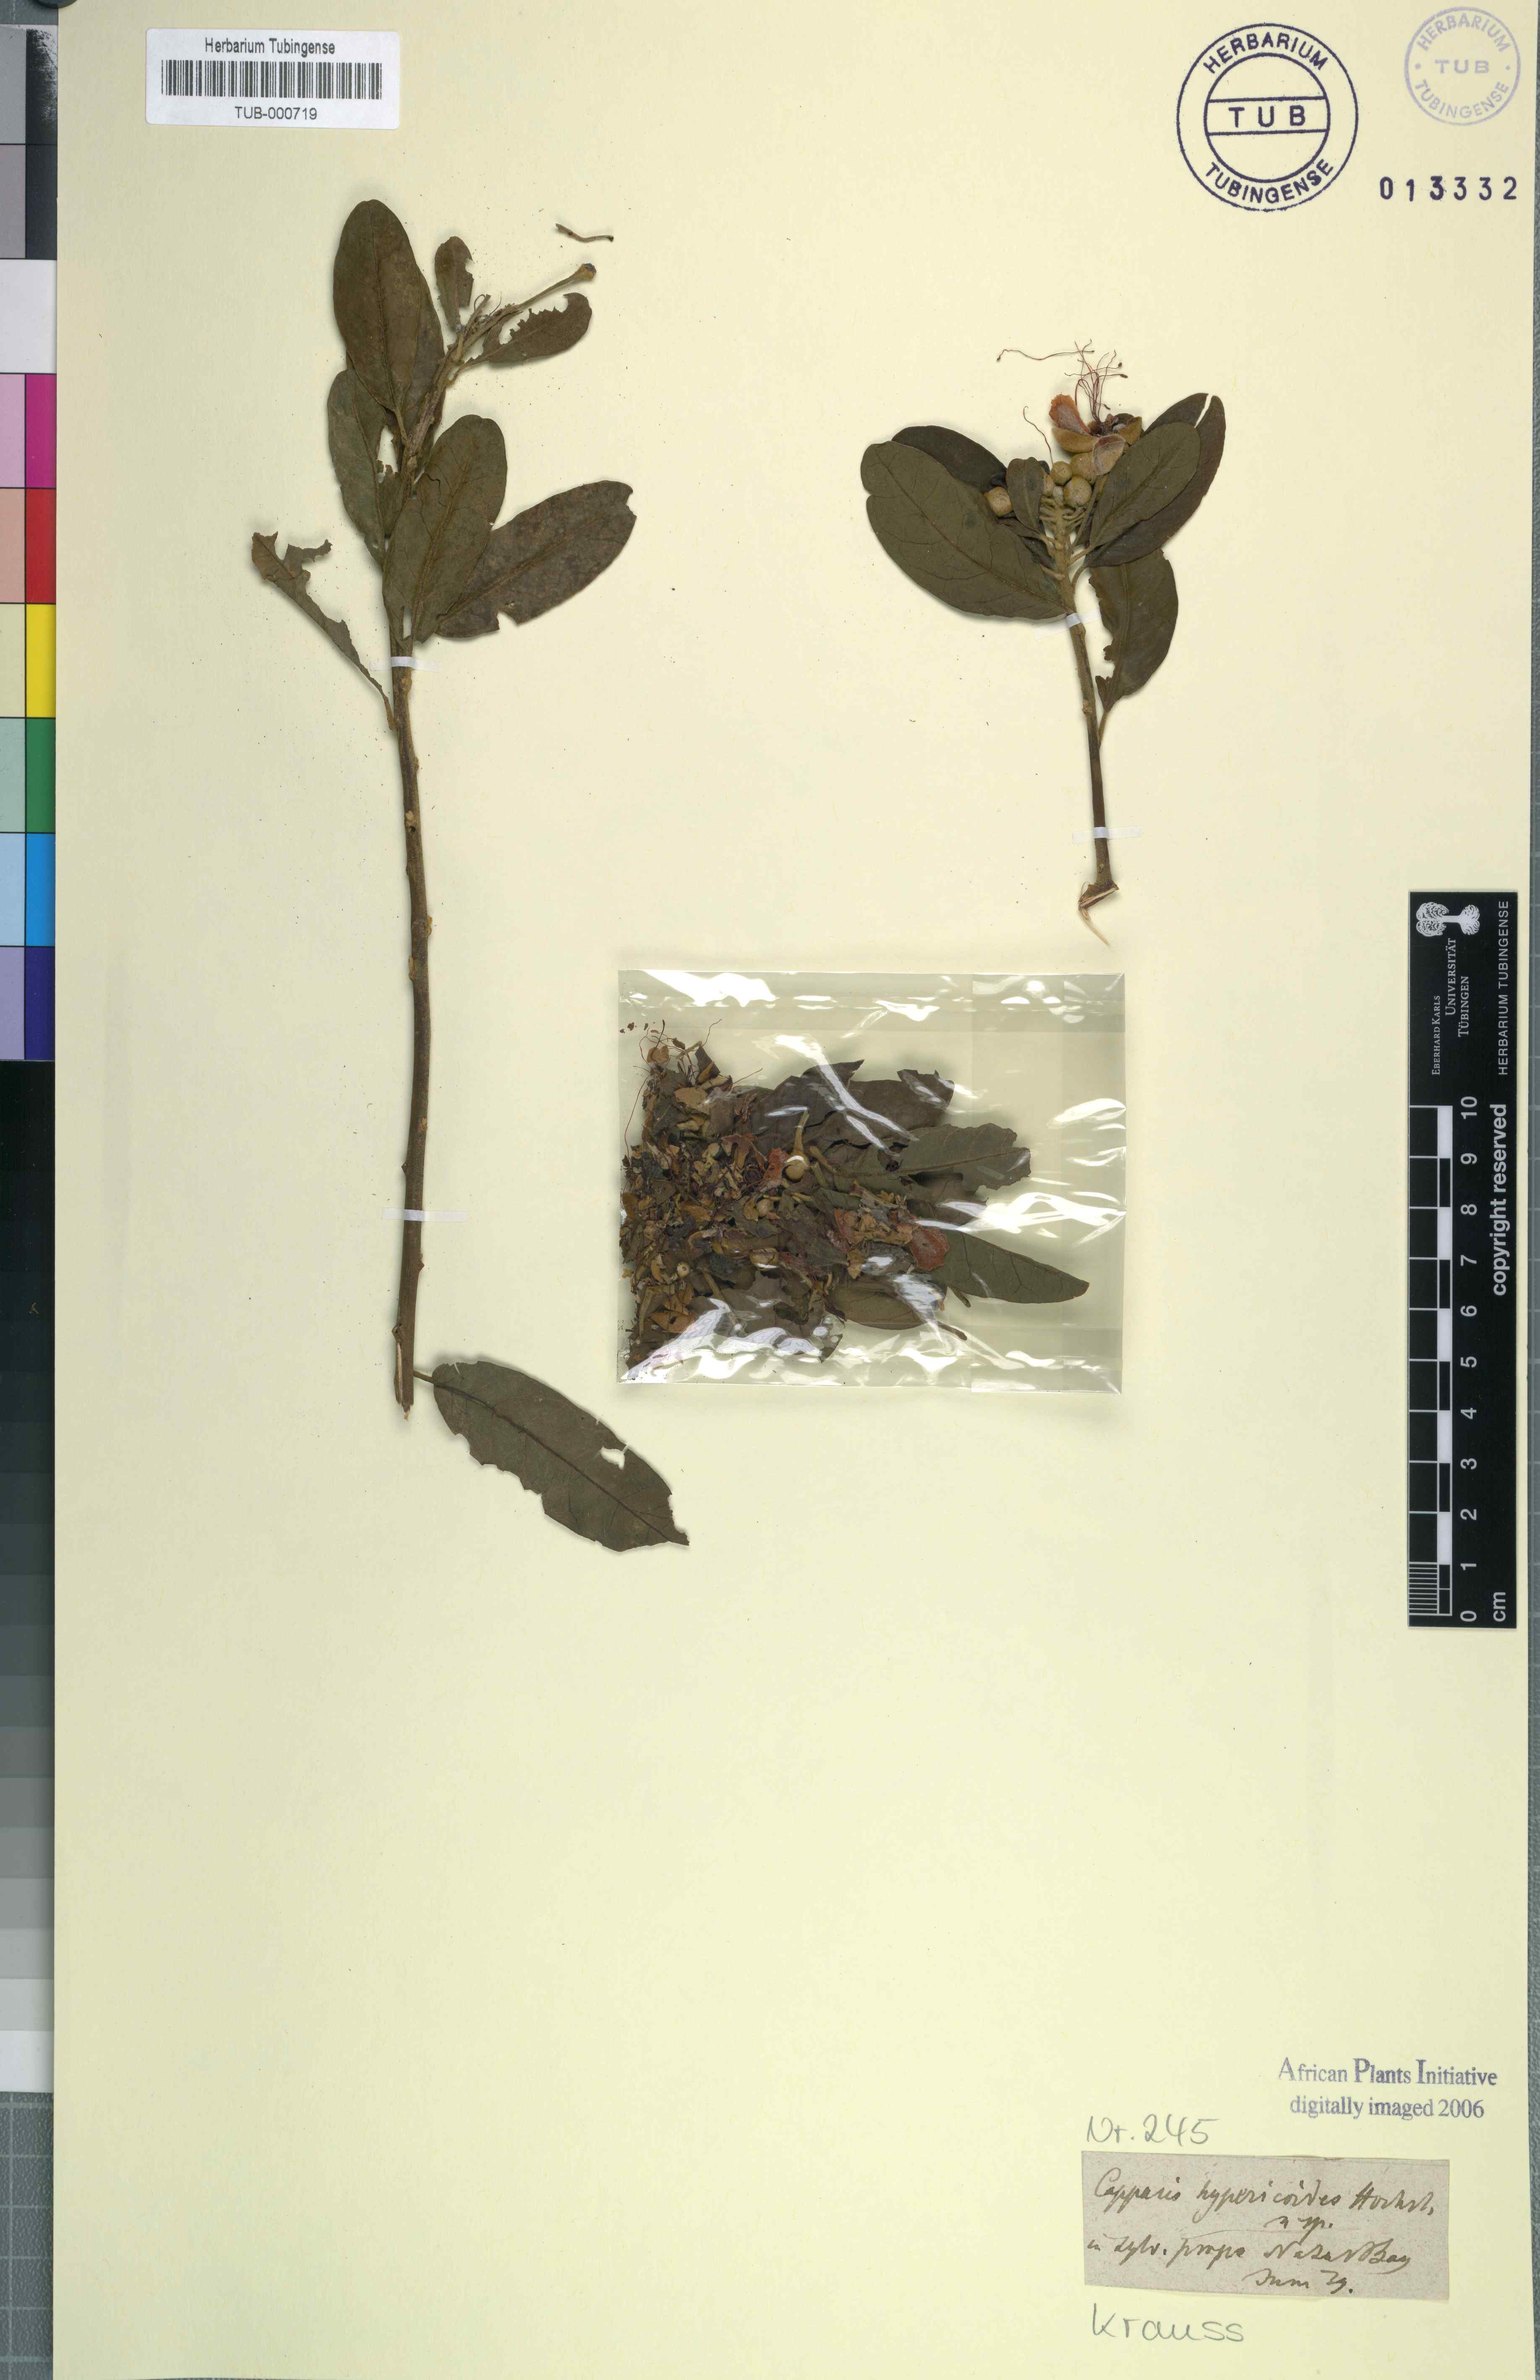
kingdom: Plantae
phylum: Tracheophyta
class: Magnoliopsida
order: Brassicales
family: Capparaceae
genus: Capparis
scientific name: Capparis tomentosa
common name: African caper
